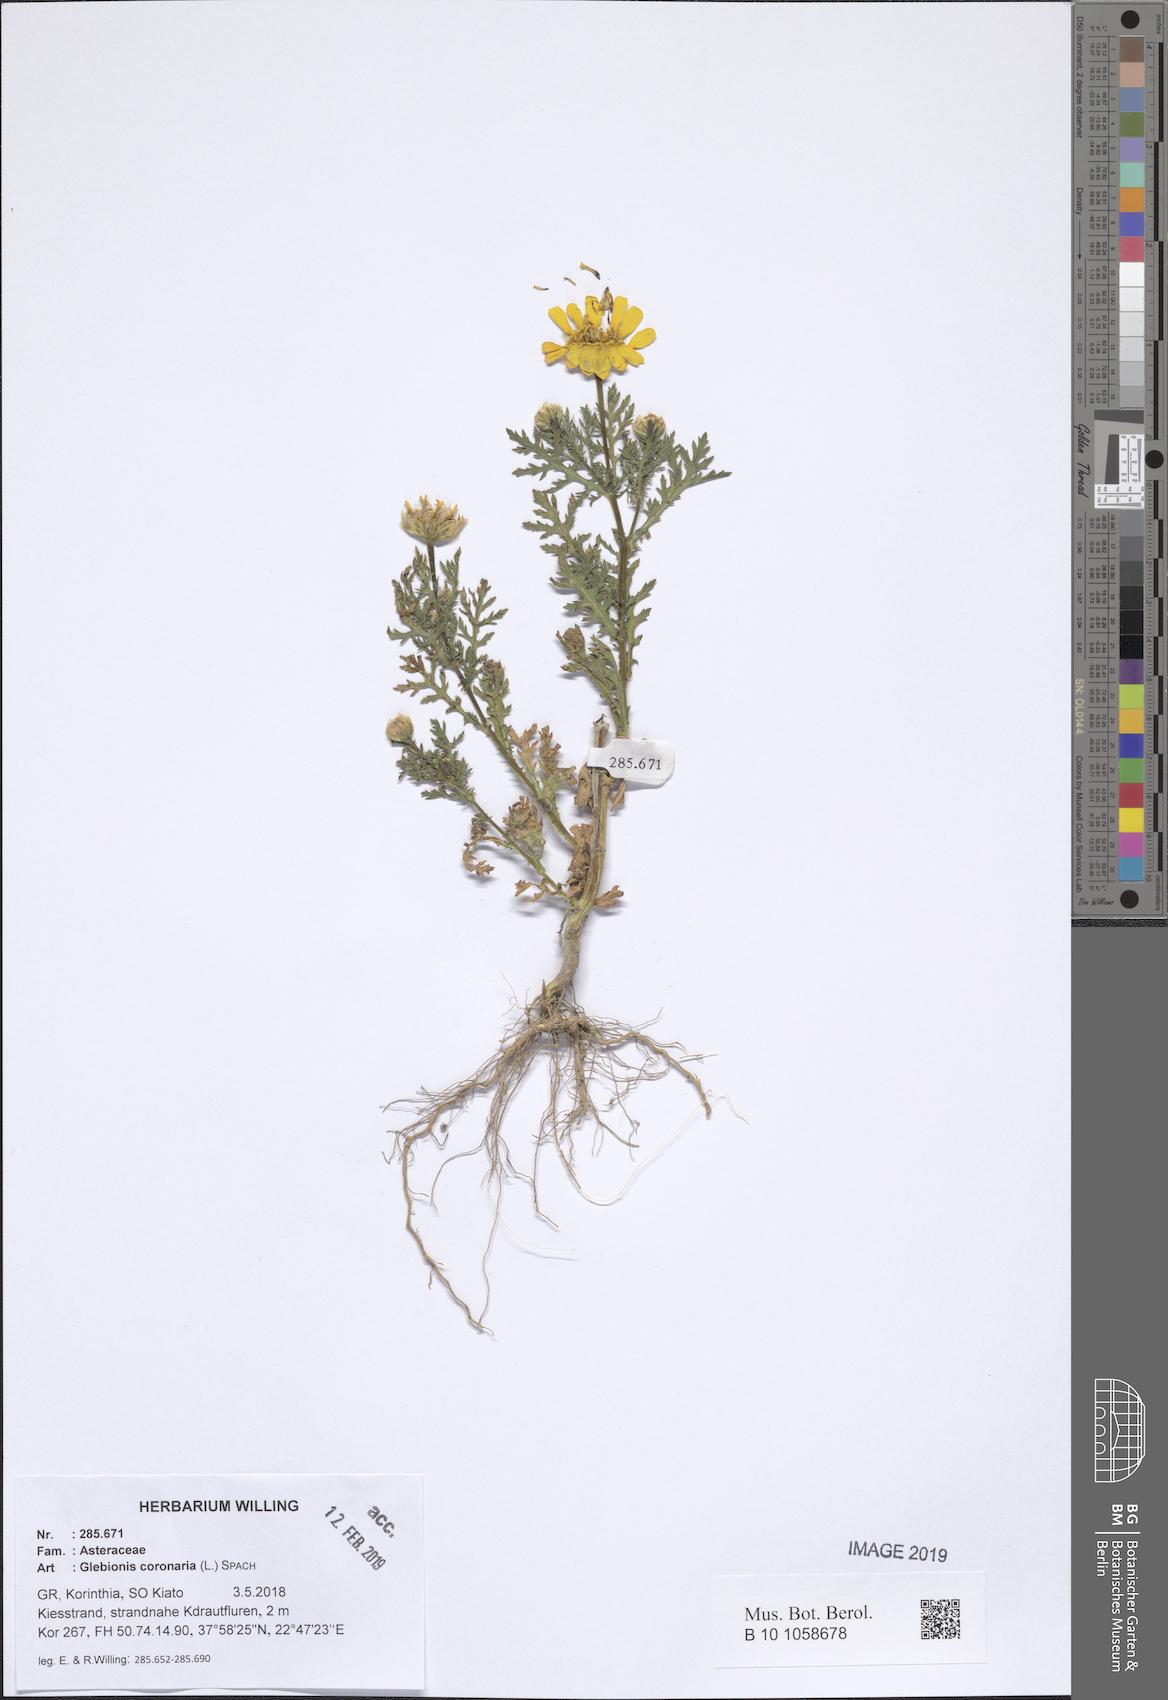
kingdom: Plantae
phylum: Tracheophyta
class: Magnoliopsida
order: Asterales
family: Asteraceae
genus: Glebionis
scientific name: Glebionis coronaria
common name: Crowndaisy
